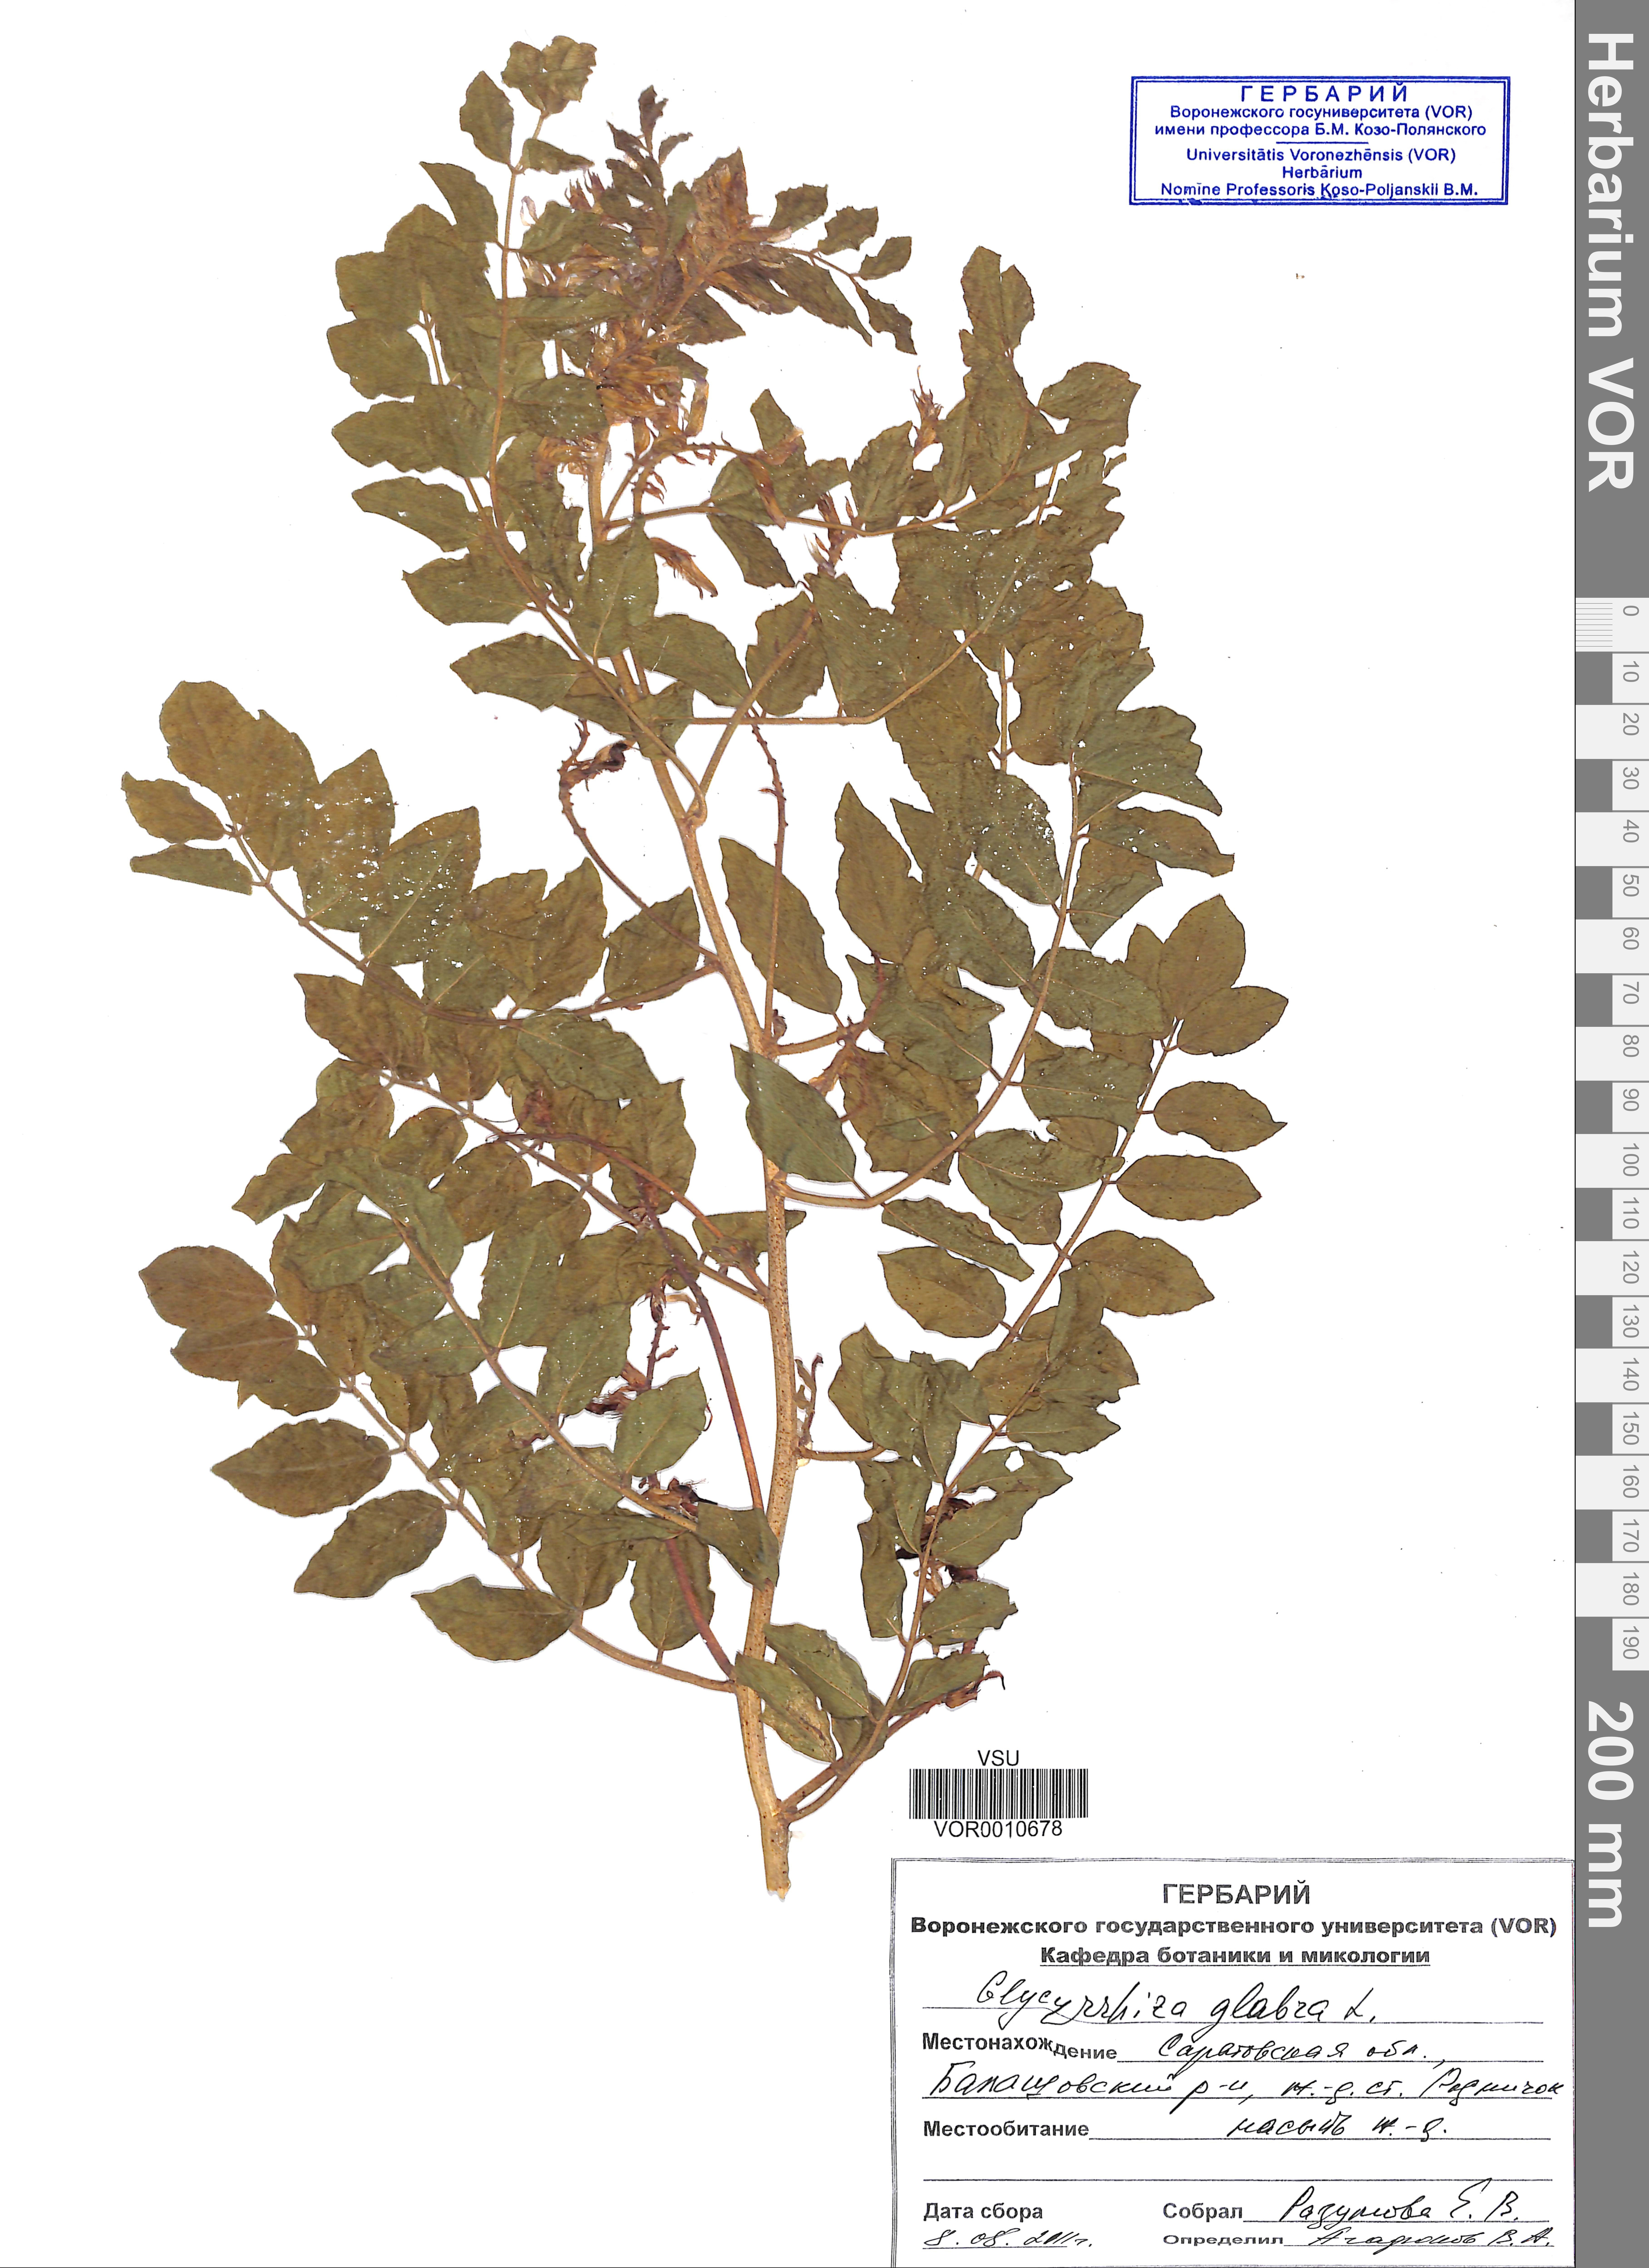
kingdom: Plantae
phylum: Tracheophyta
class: Magnoliopsida
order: Fabales
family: Fabaceae
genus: Glycyrrhiza
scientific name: Glycyrrhiza glabra
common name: Liquorice
